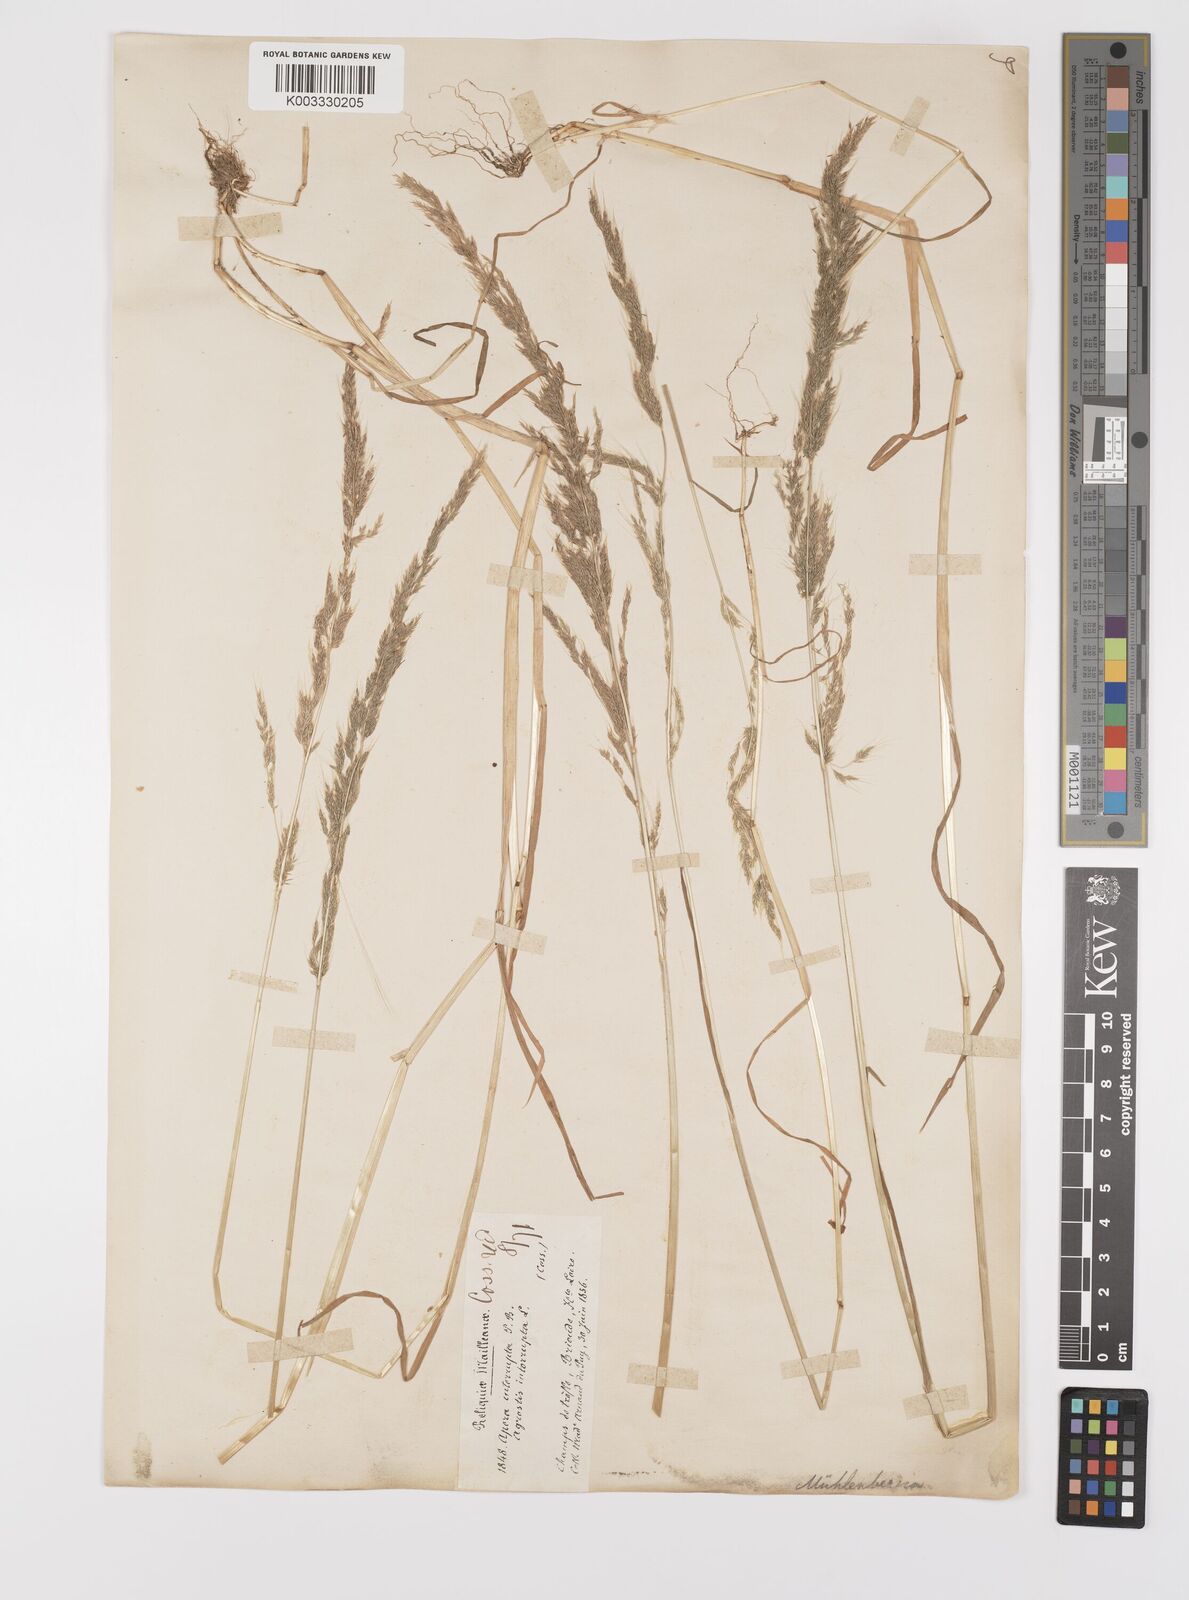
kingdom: Plantae
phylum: Tracheophyta
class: Liliopsida
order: Poales
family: Poaceae
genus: Apera
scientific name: Apera interrupta
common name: Dense silky-bent
